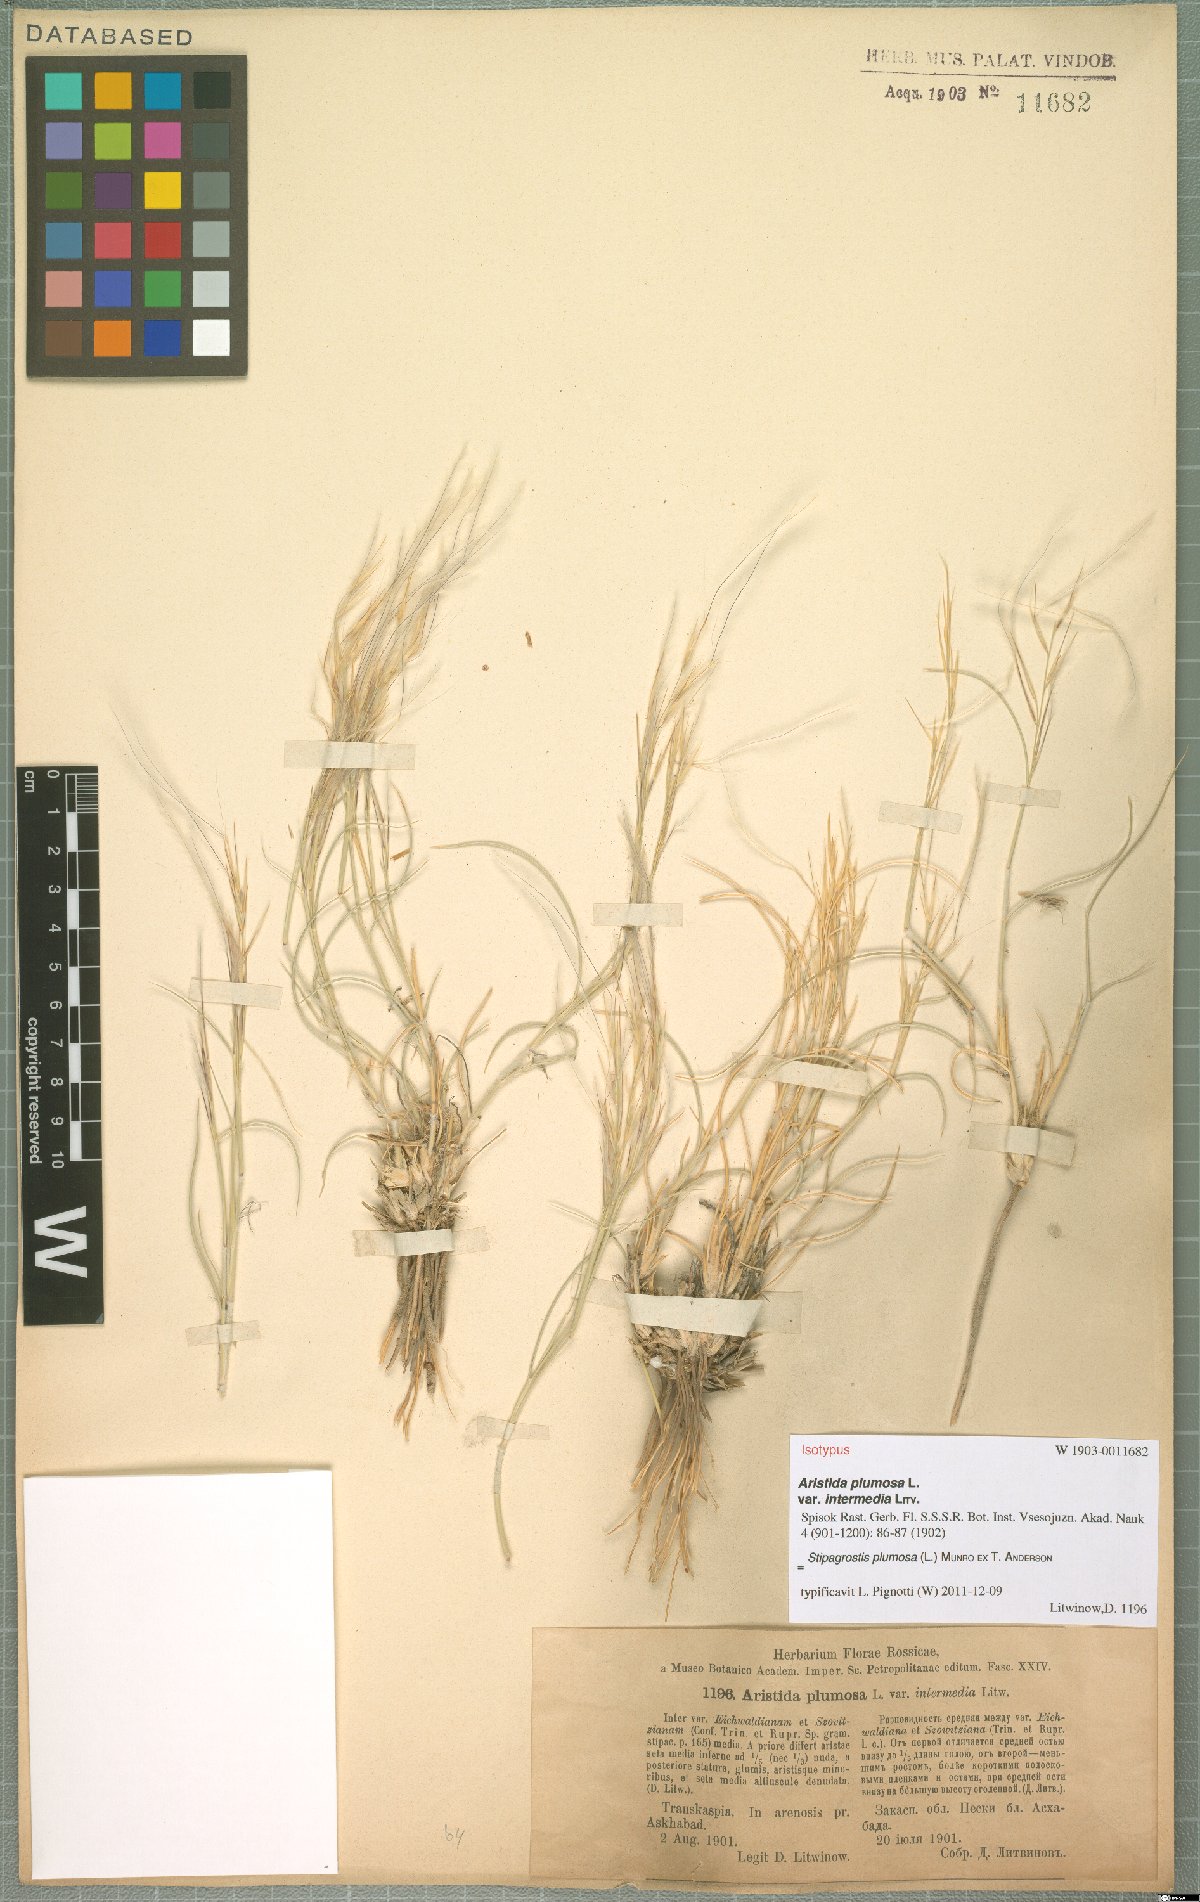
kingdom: Plantae
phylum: Tracheophyta
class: Liliopsida
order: Poales
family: Poaceae
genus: Stipagrostis
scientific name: Stipagrostis plumosa
